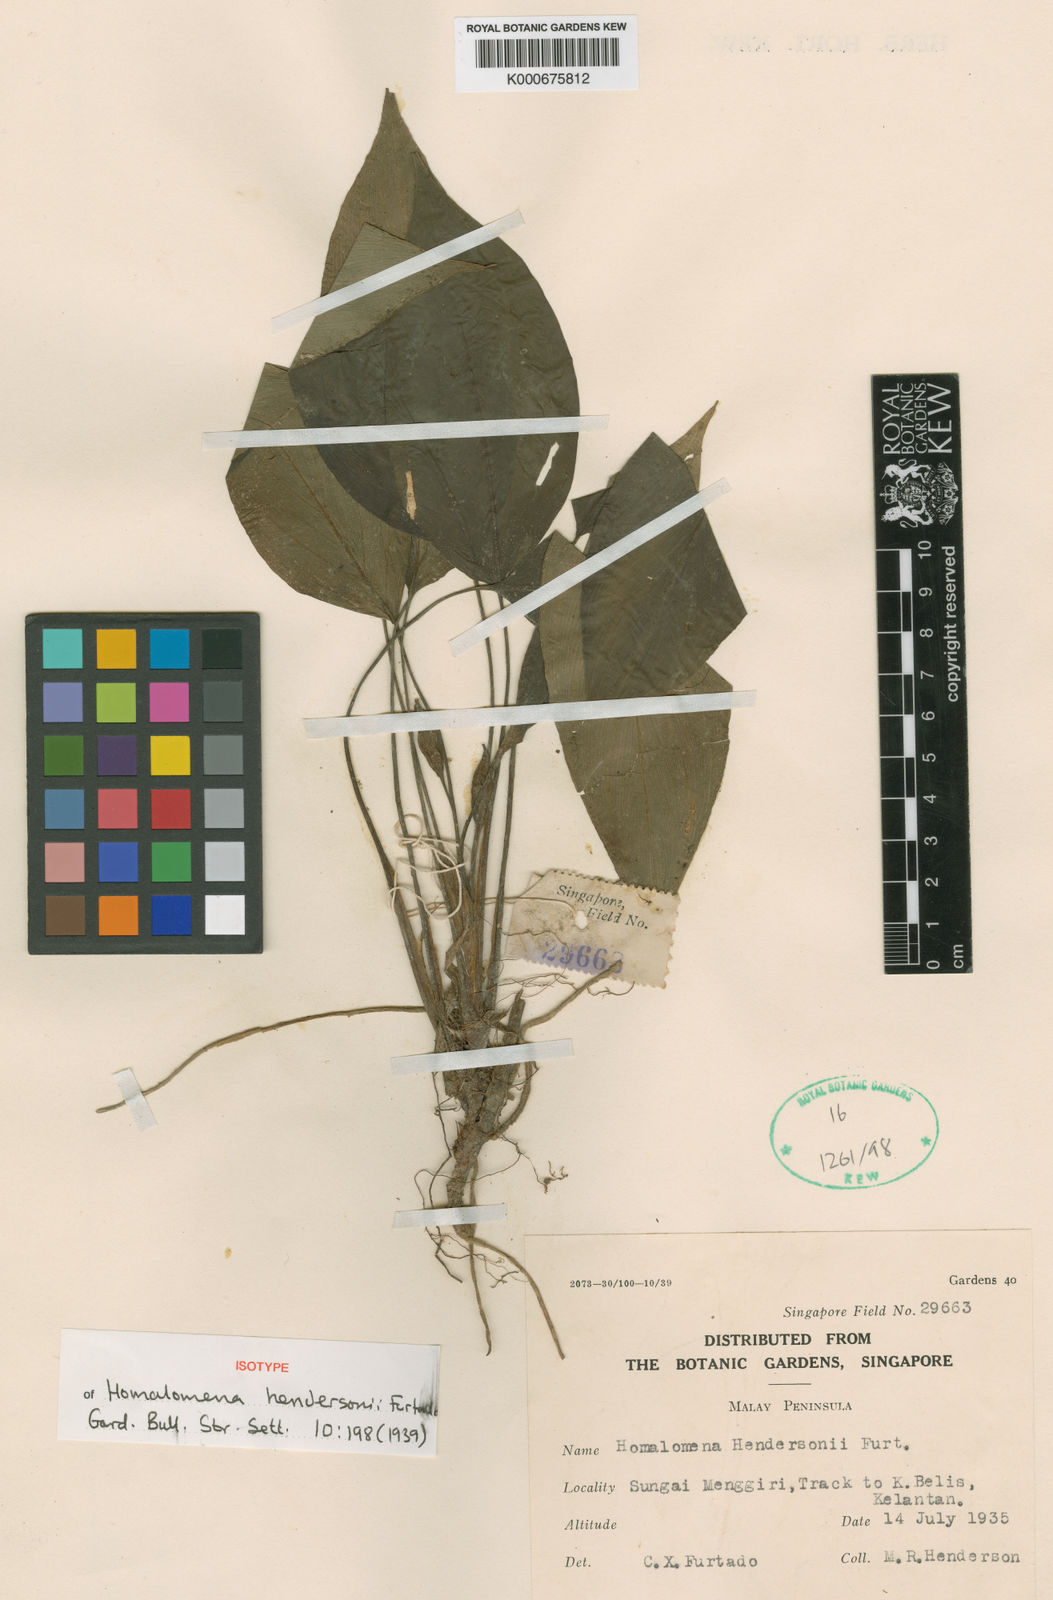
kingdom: Plantae
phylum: Tracheophyta
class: Liliopsida
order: Alismatales
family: Araceae
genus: Homalomena
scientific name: Homalomena hendersonii
